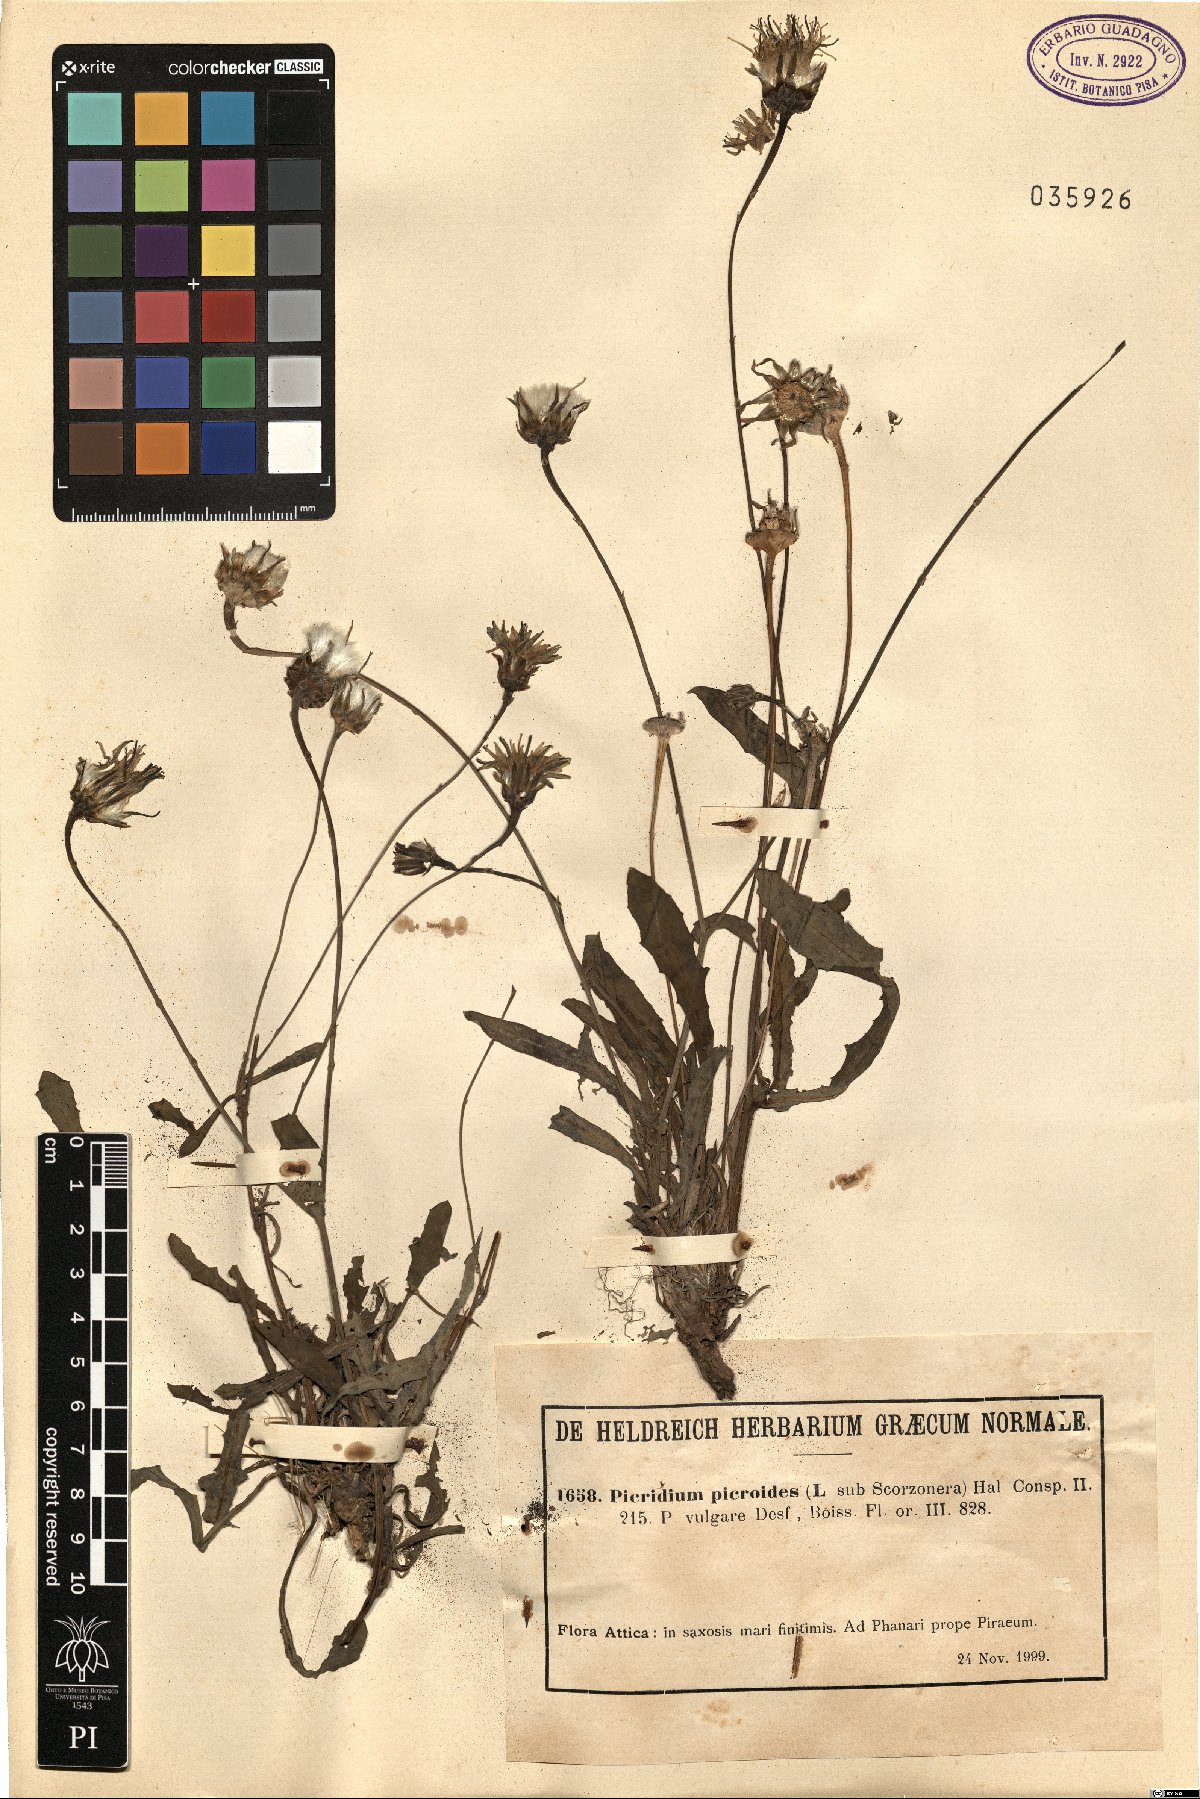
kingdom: Plantae
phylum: Tracheophyta
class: Magnoliopsida
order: Asterales
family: Asteraceae
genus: Reichardia
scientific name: Reichardia picroides
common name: Common brighteyes
